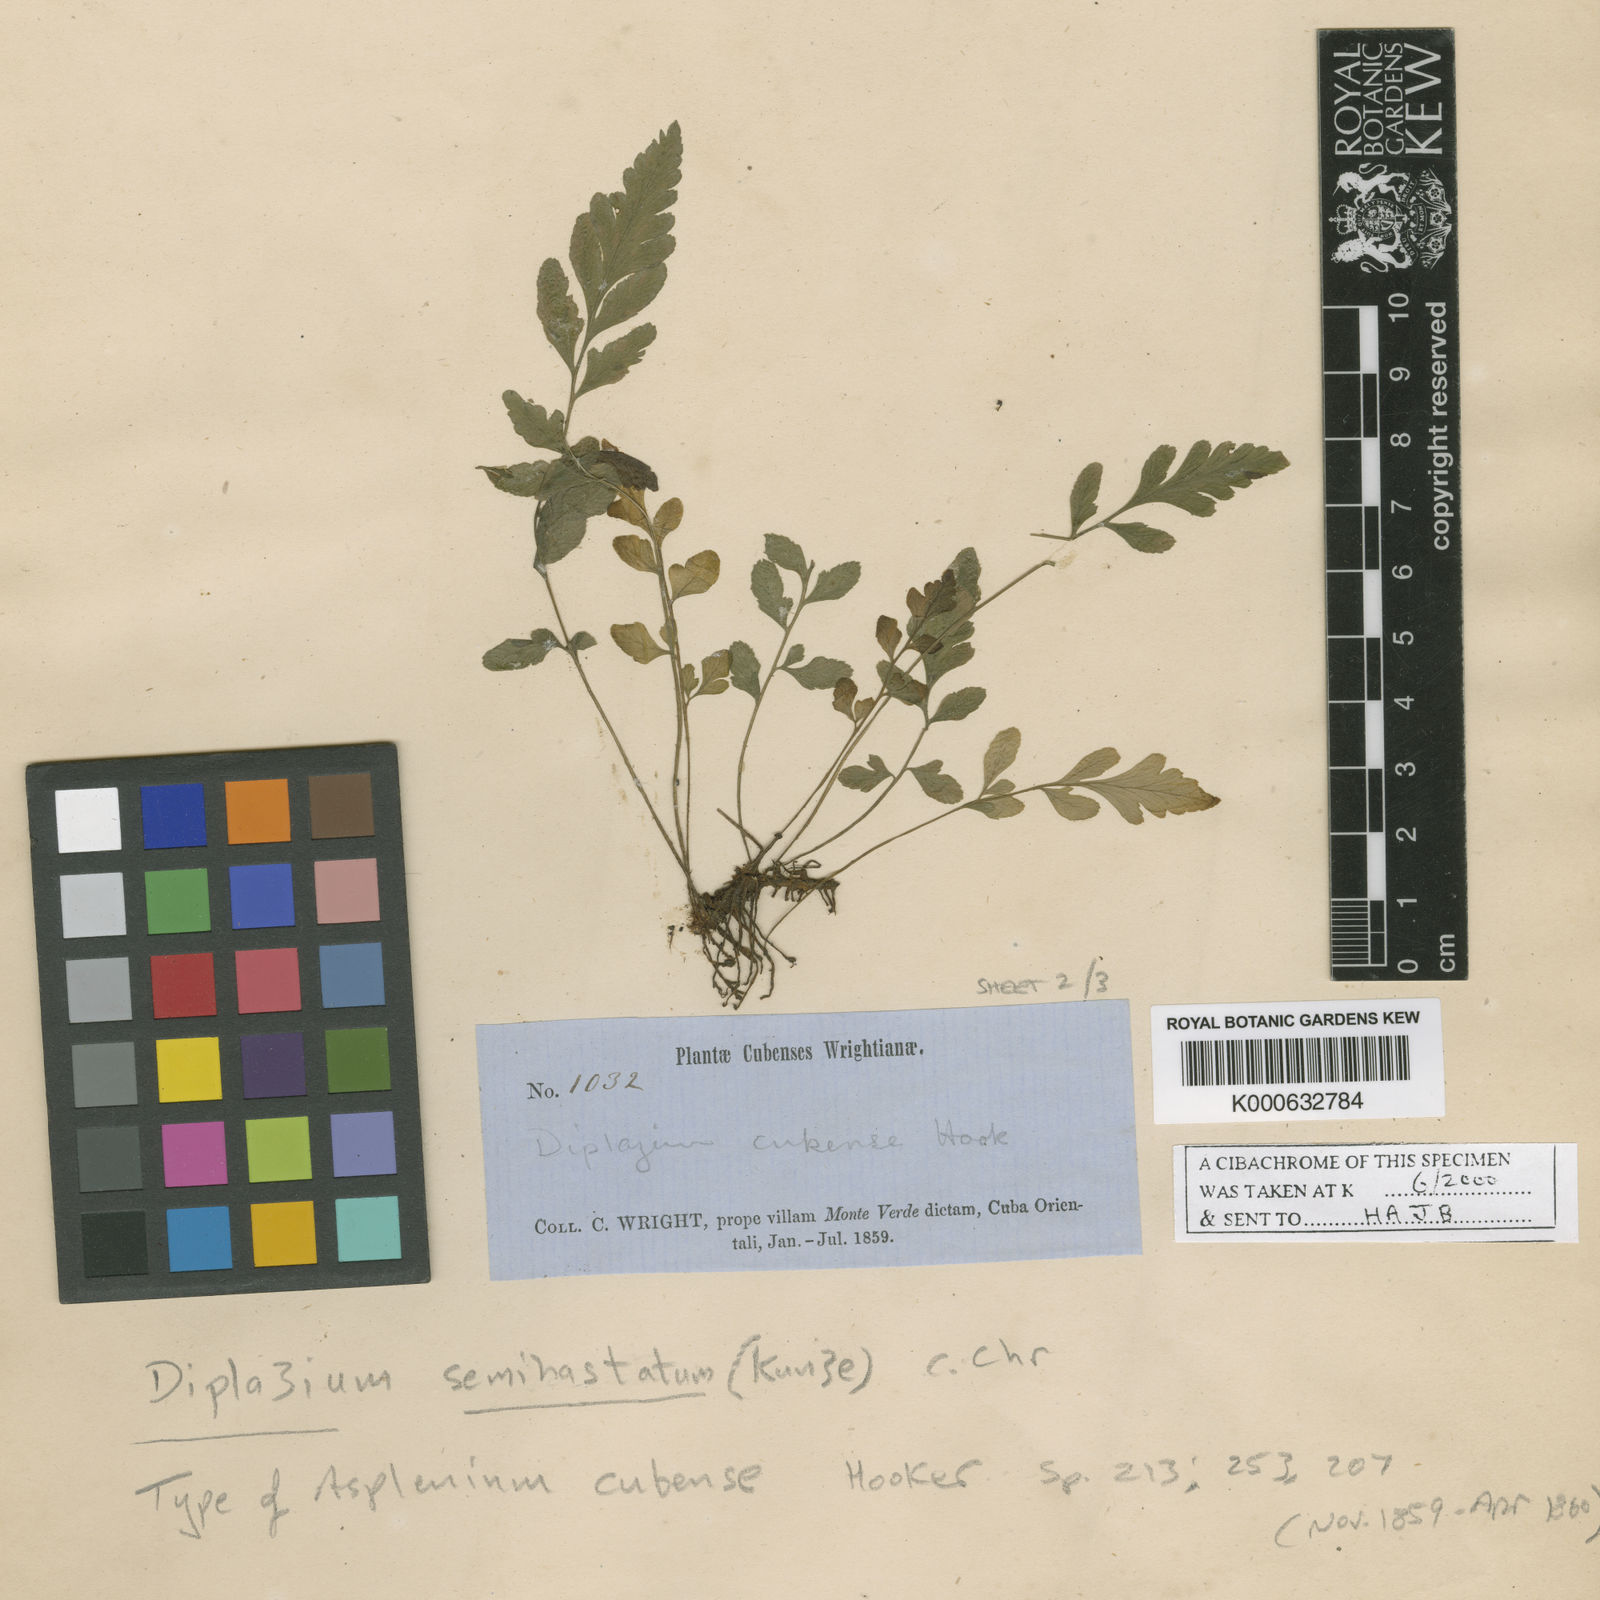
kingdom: Plantae
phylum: Tracheophyta
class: Polypodiopsida
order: Polypodiales
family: Athyriaceae
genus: Diplazium
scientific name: Diplazium unilobum
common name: Singlelobe twinsorus fern
